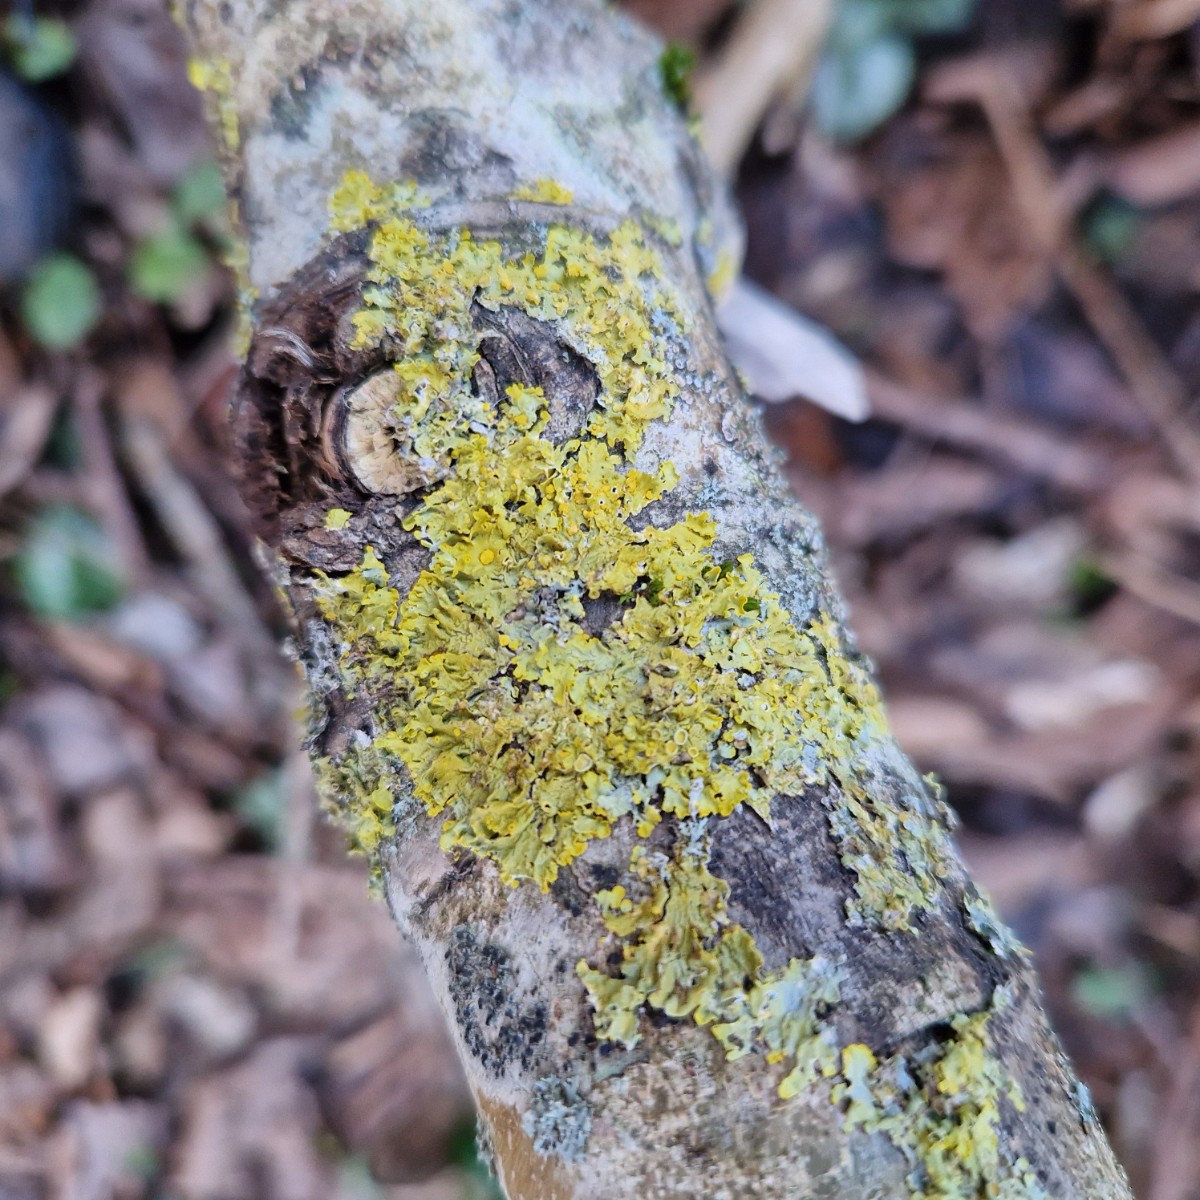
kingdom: Fungi
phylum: Ascomycota
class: Lecanoromycetes
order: Teloschistales
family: Teloschistaceae
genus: Xanthoria
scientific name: Xanthoria parietina
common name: almindelig væggelav
